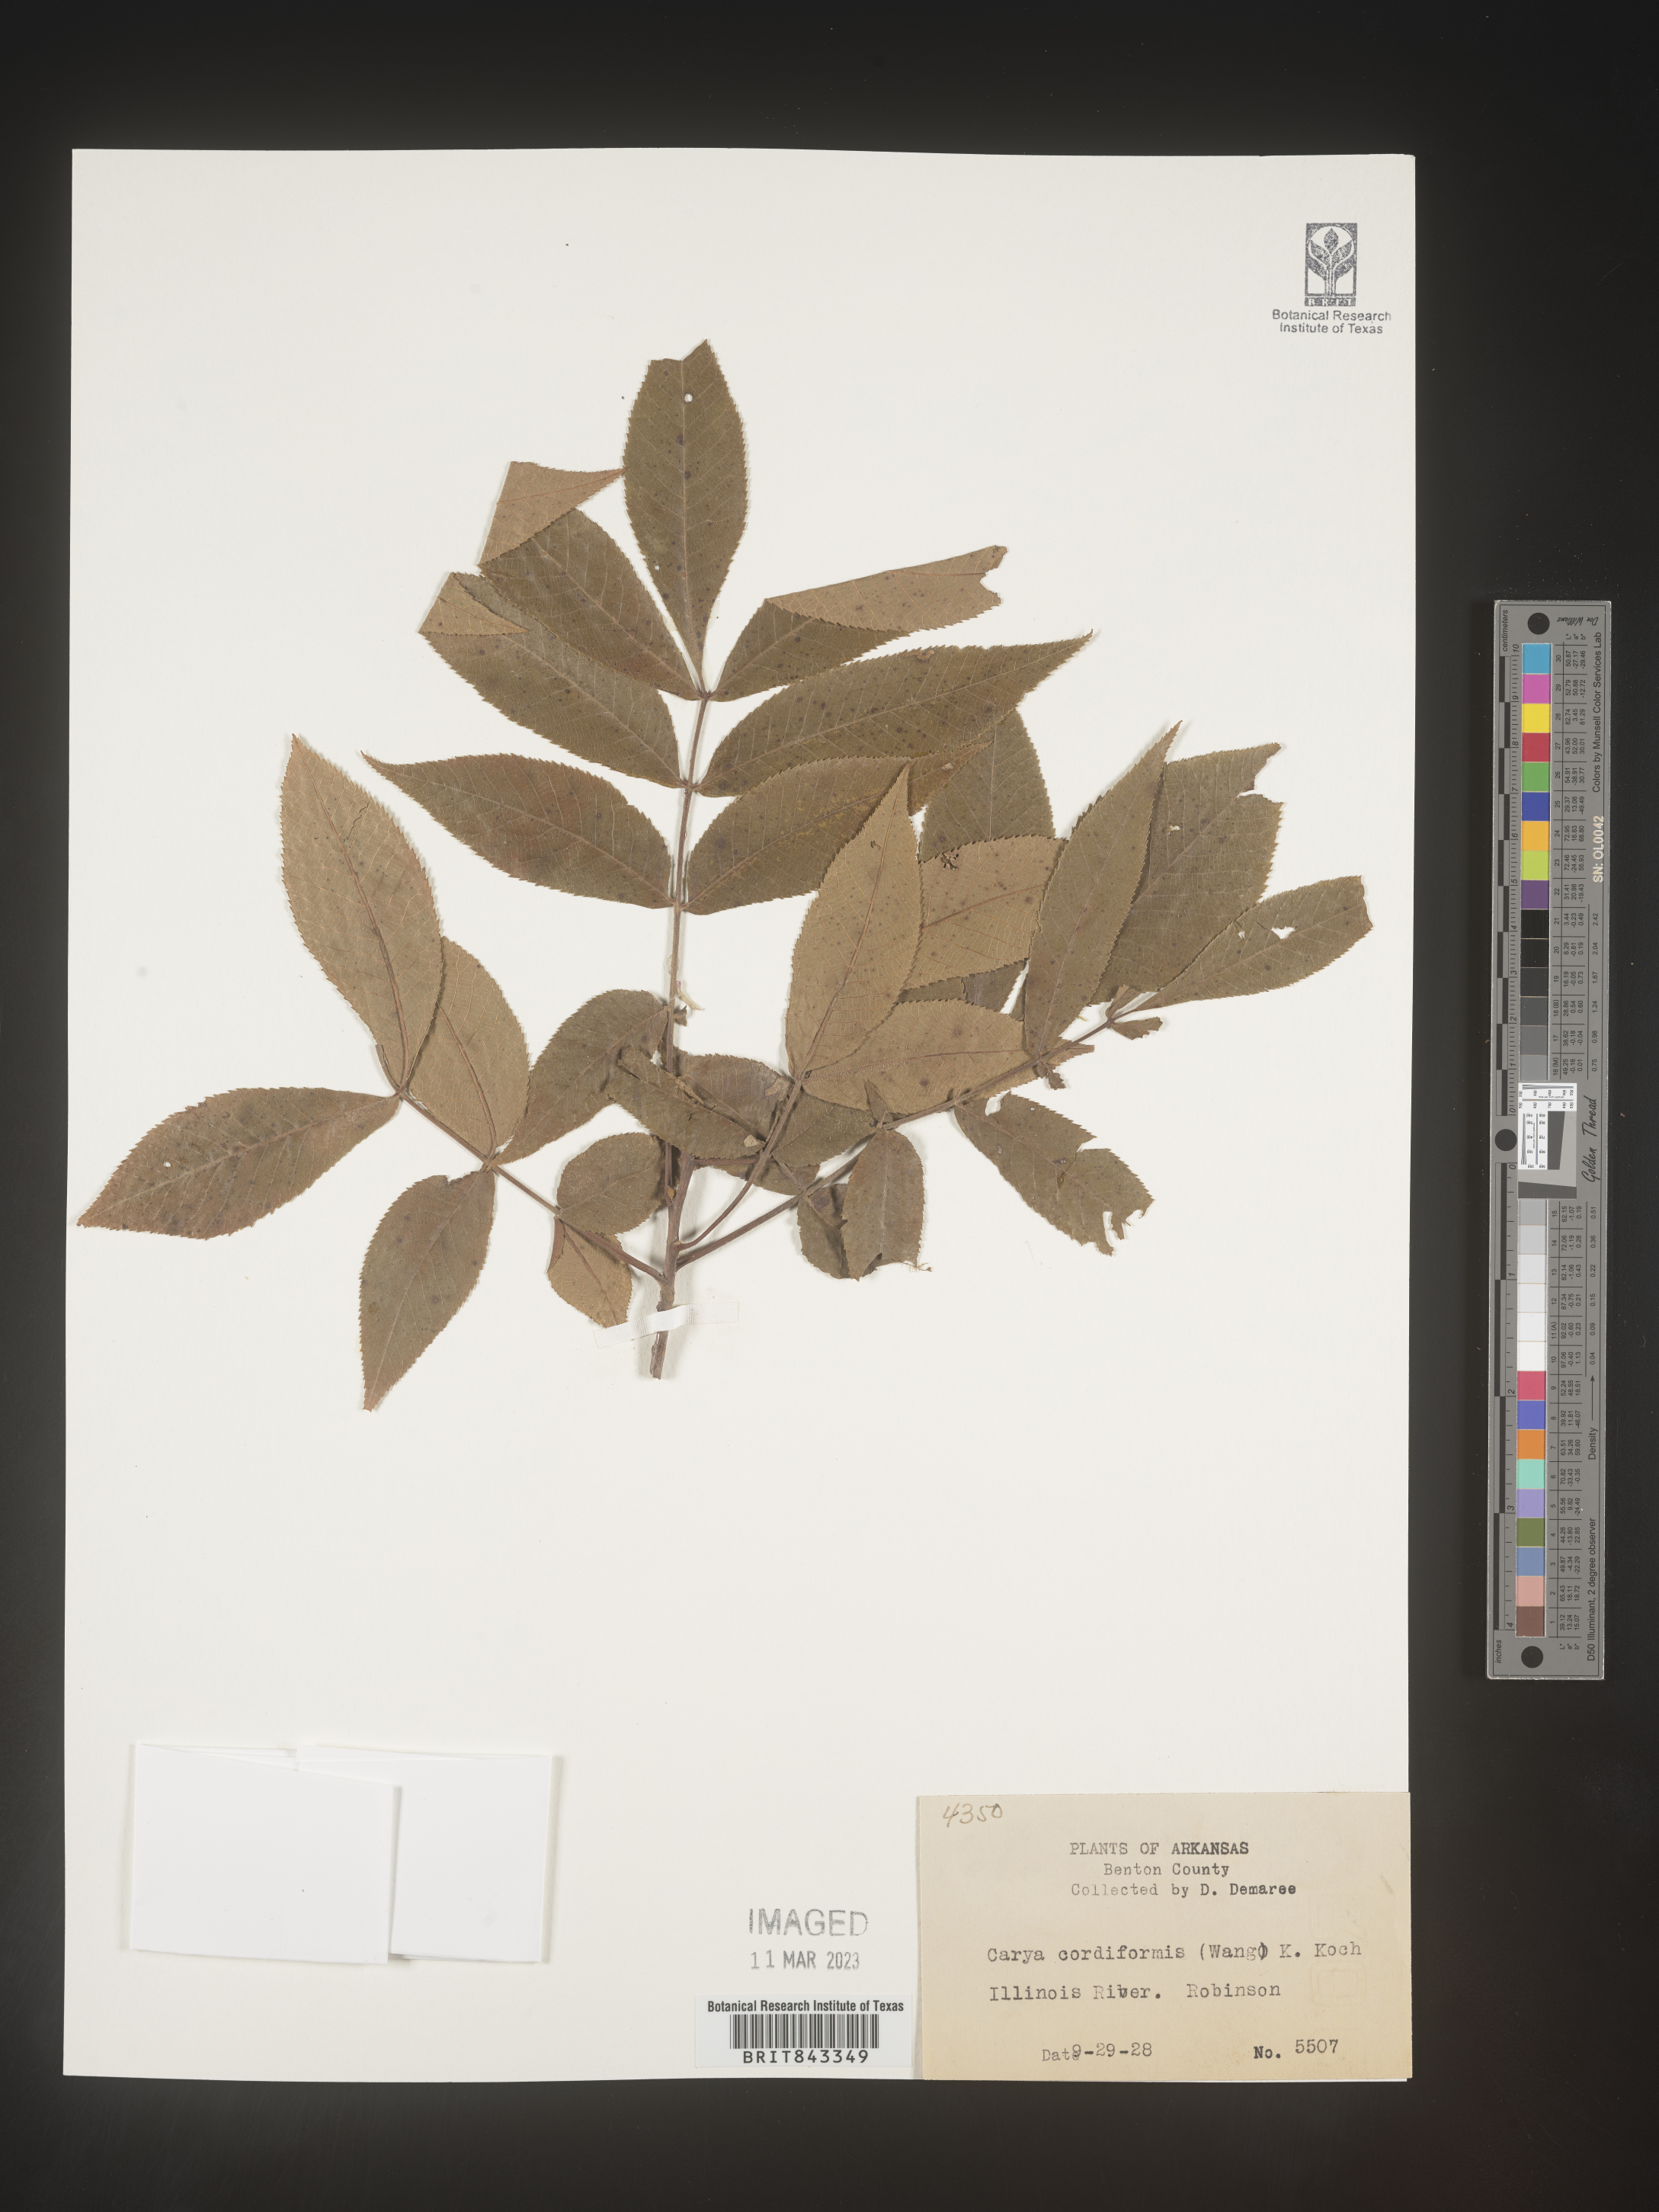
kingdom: Plantae
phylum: Tracheophyta
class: Magnoliopsida
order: Fagales
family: Juglandaceae
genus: Carya
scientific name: Carya cordiformis
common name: Bitternut hickory
